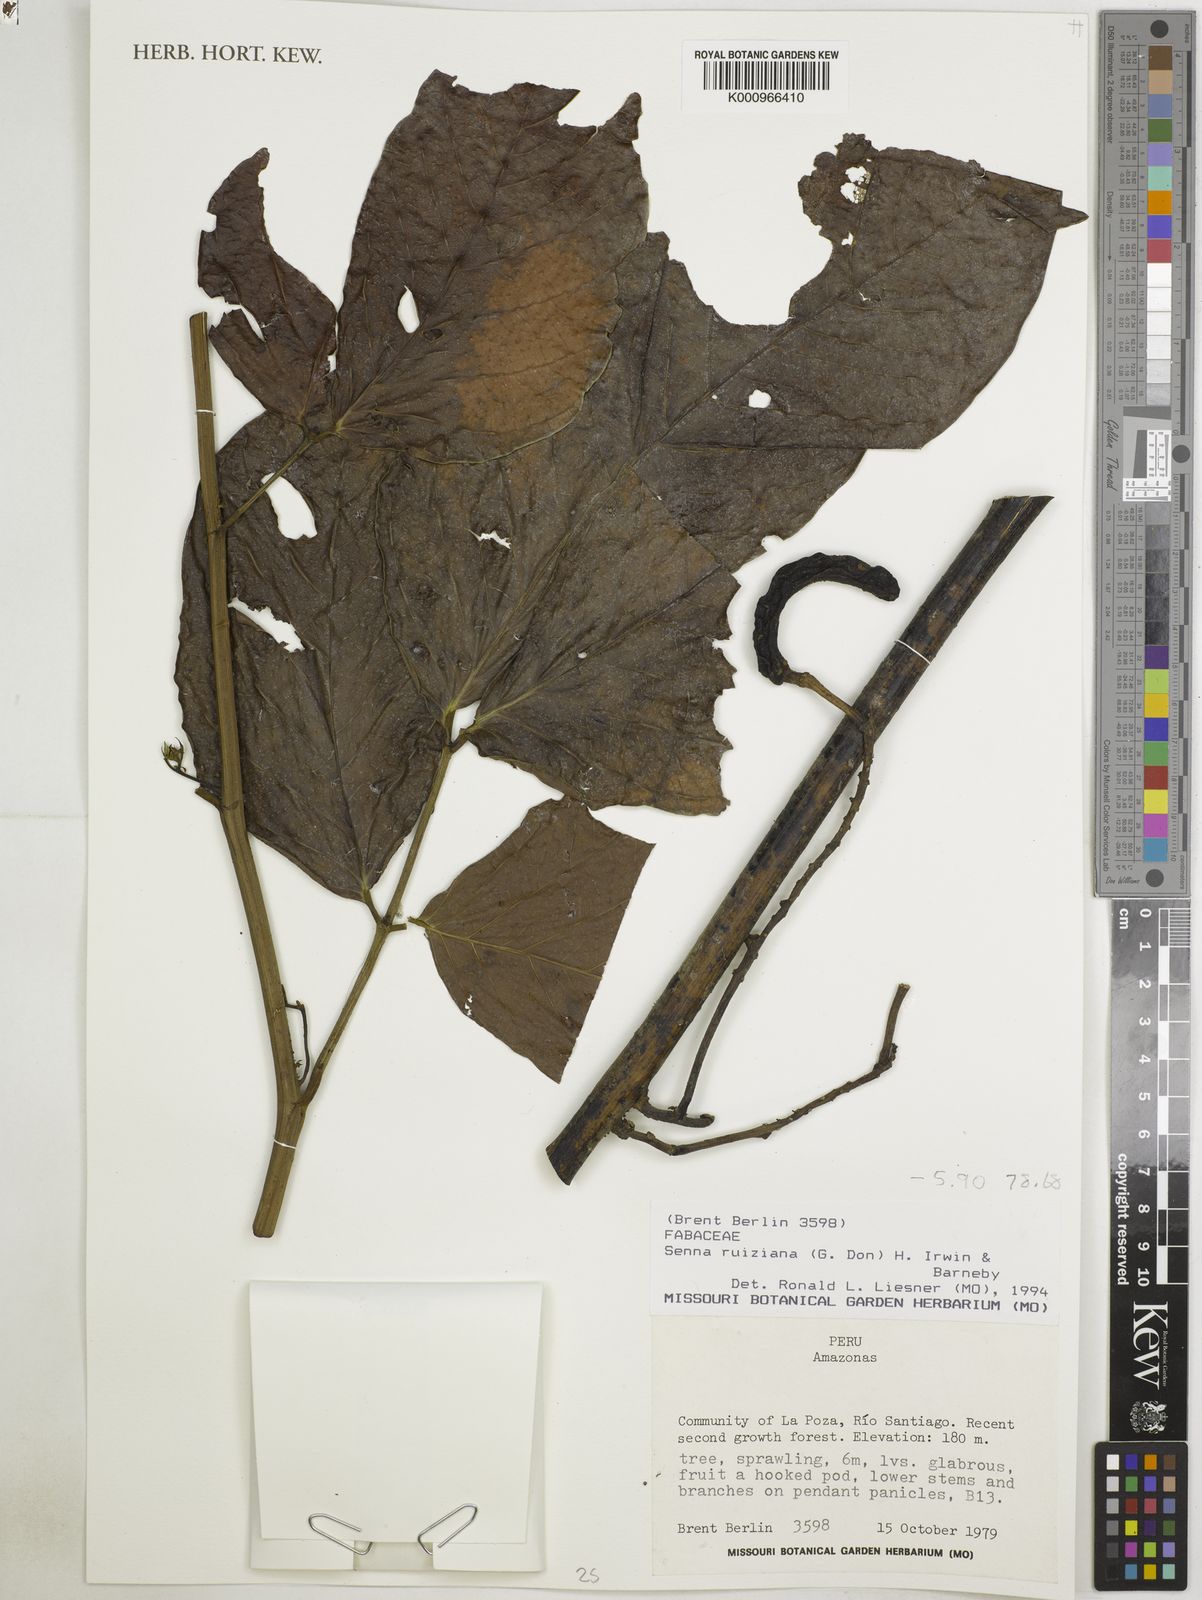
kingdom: Plantae
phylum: Tracheophyta
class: Magnoliopsida
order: Fabales
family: Fabaceae
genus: Senna
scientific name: Senna ruiziana
